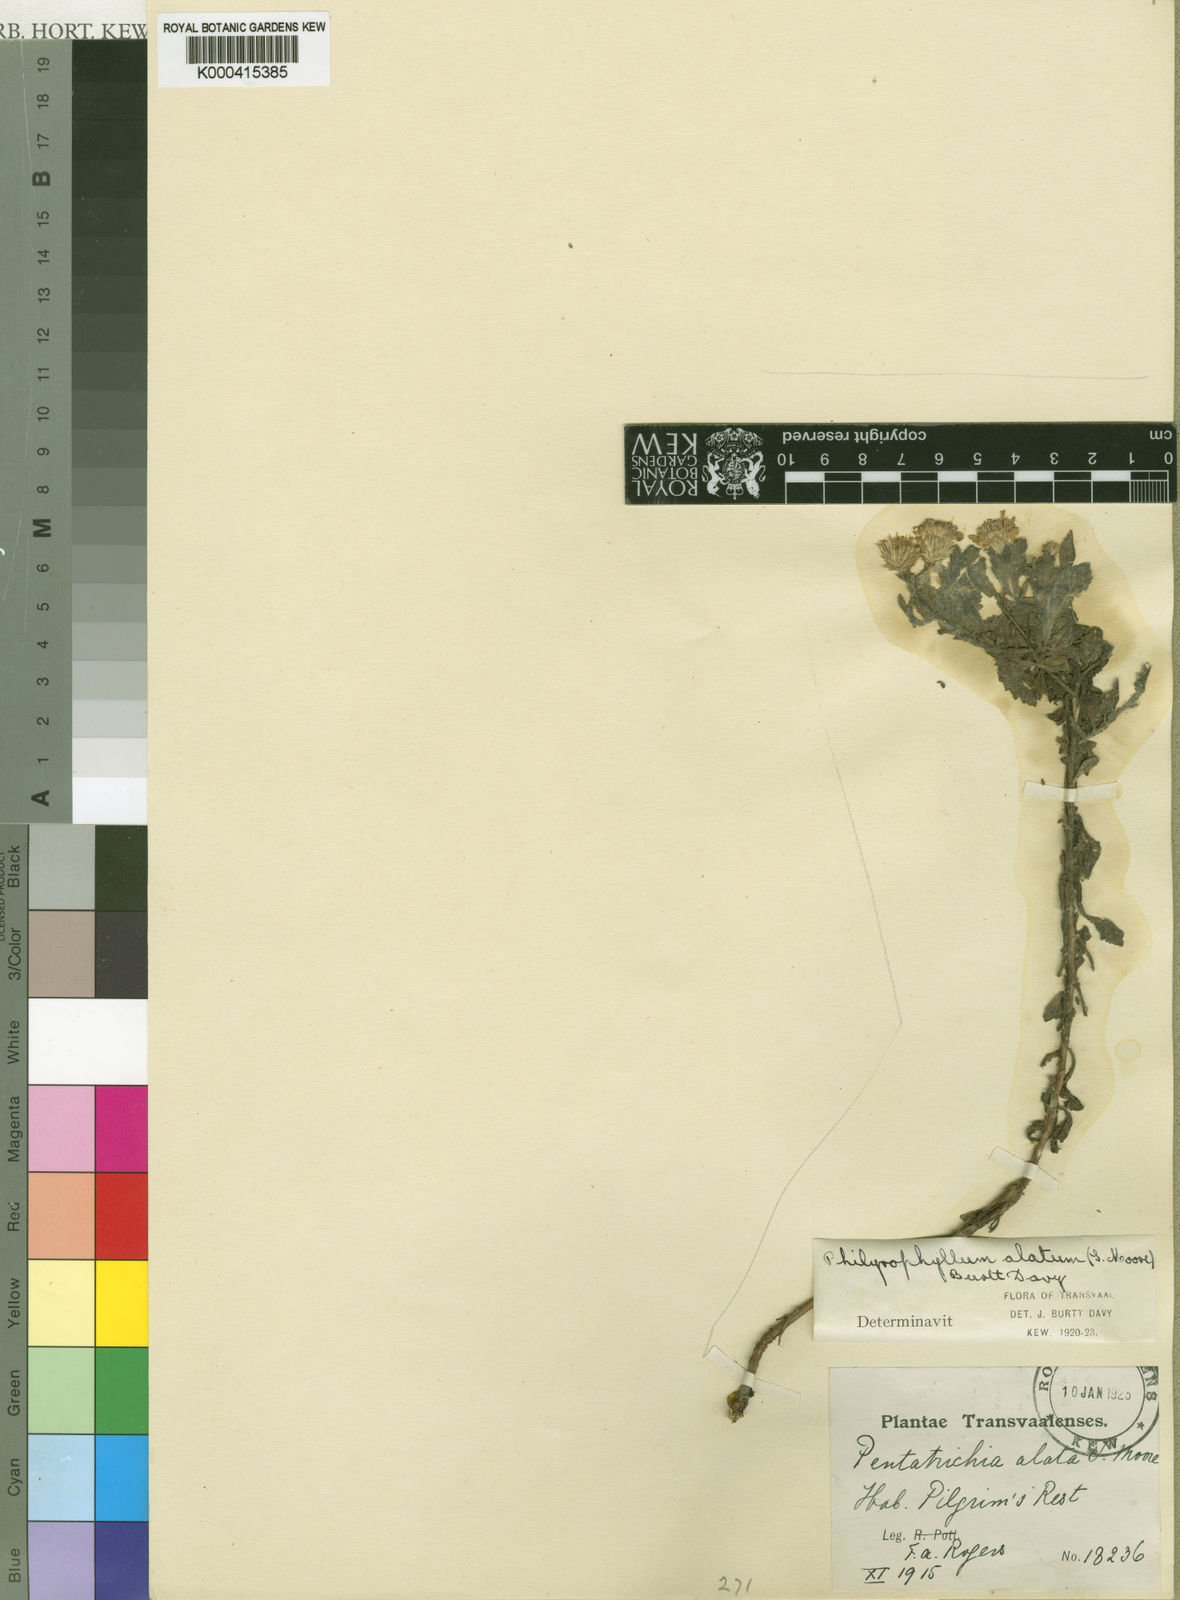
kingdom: Plantae
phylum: Tracheophyta
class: Magnoliopsida
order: Asterales
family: Asteraceae
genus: Pentatrichia
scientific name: Pentatrichia alata
